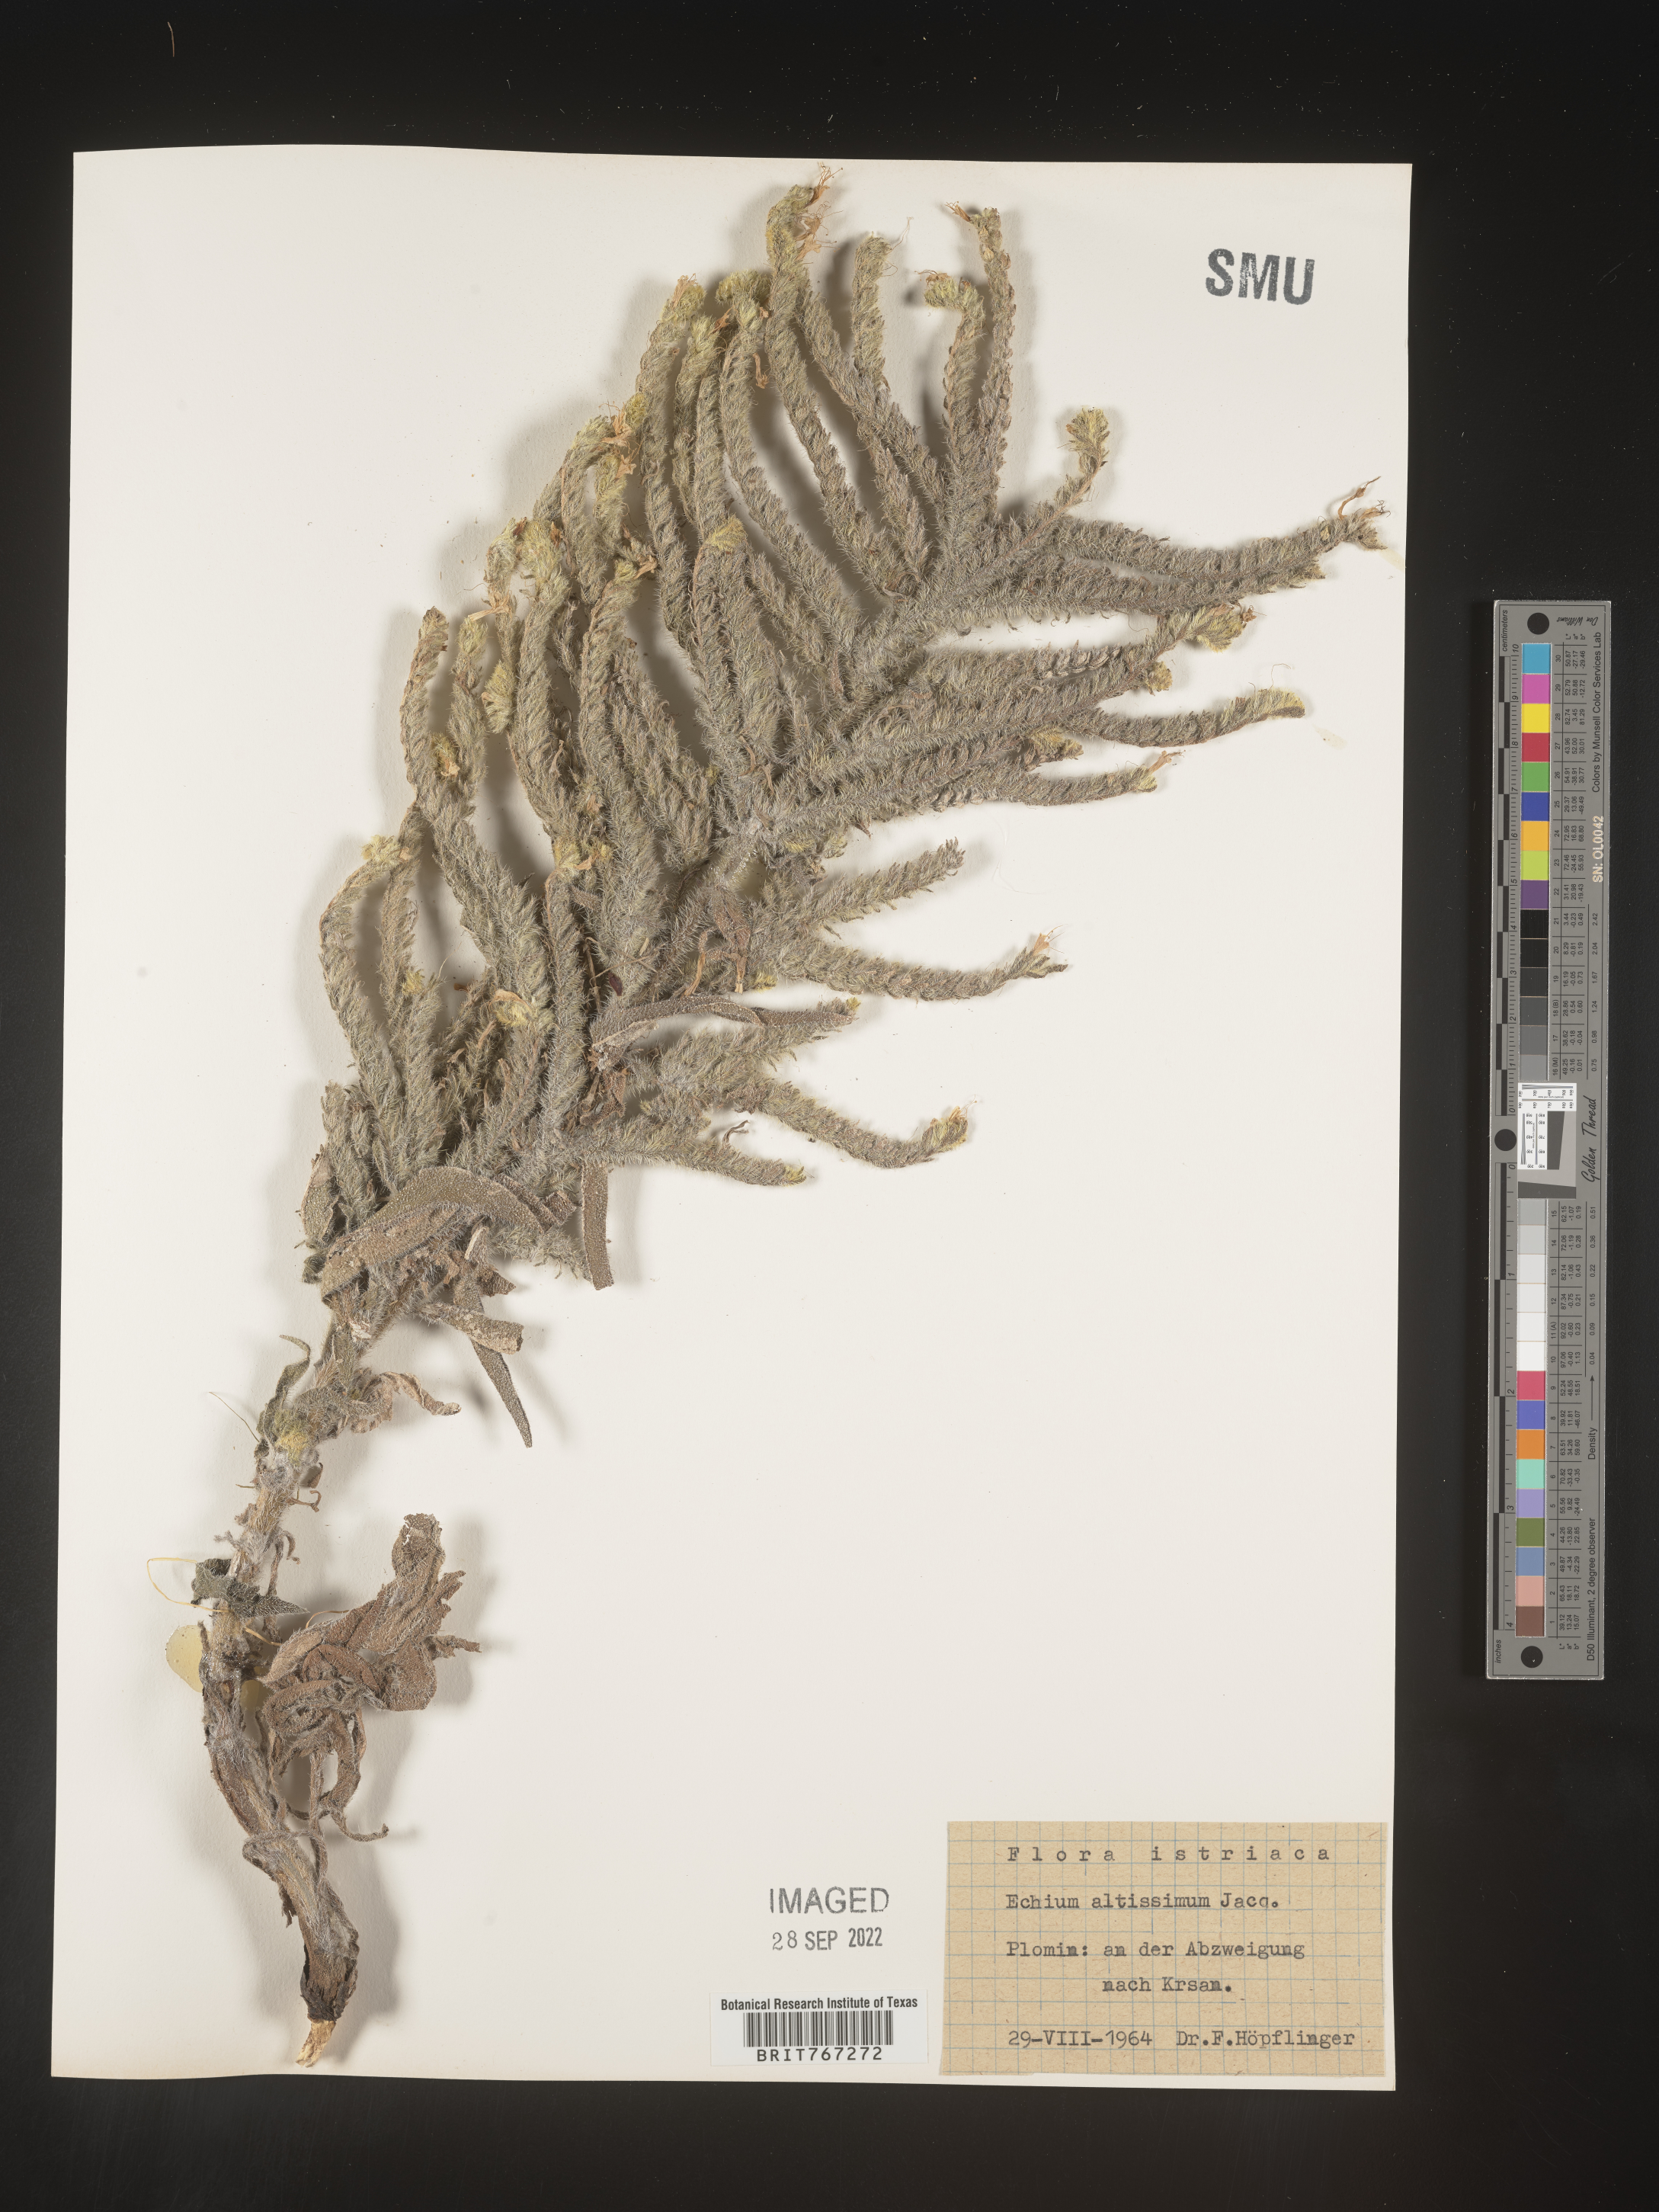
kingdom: Plantae
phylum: Tracheophyta
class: Magnoliopsida
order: Boraginales
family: Boraginaceae
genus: Echium
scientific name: Echium
